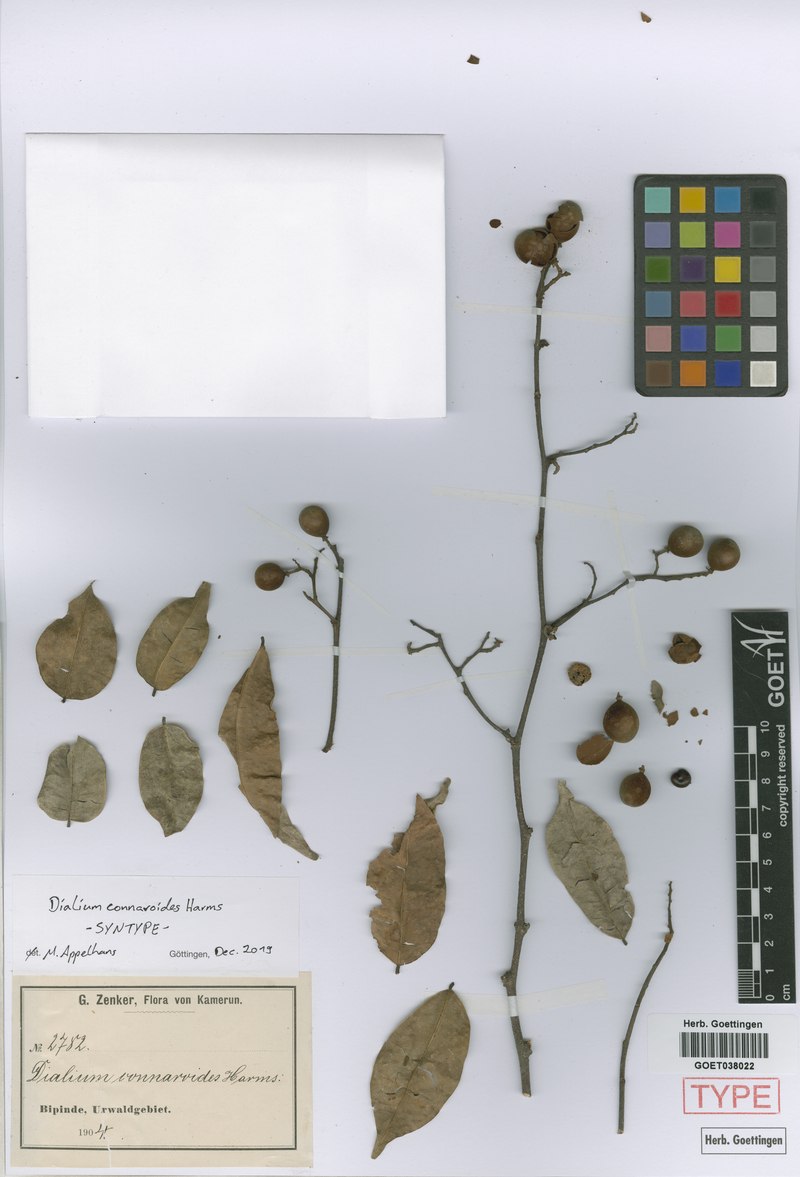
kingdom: Plantae
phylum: Tracheophyta
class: Magnoliopsida
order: Fabales
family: Fabaceae
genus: Dialium
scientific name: Dialium bipindense
